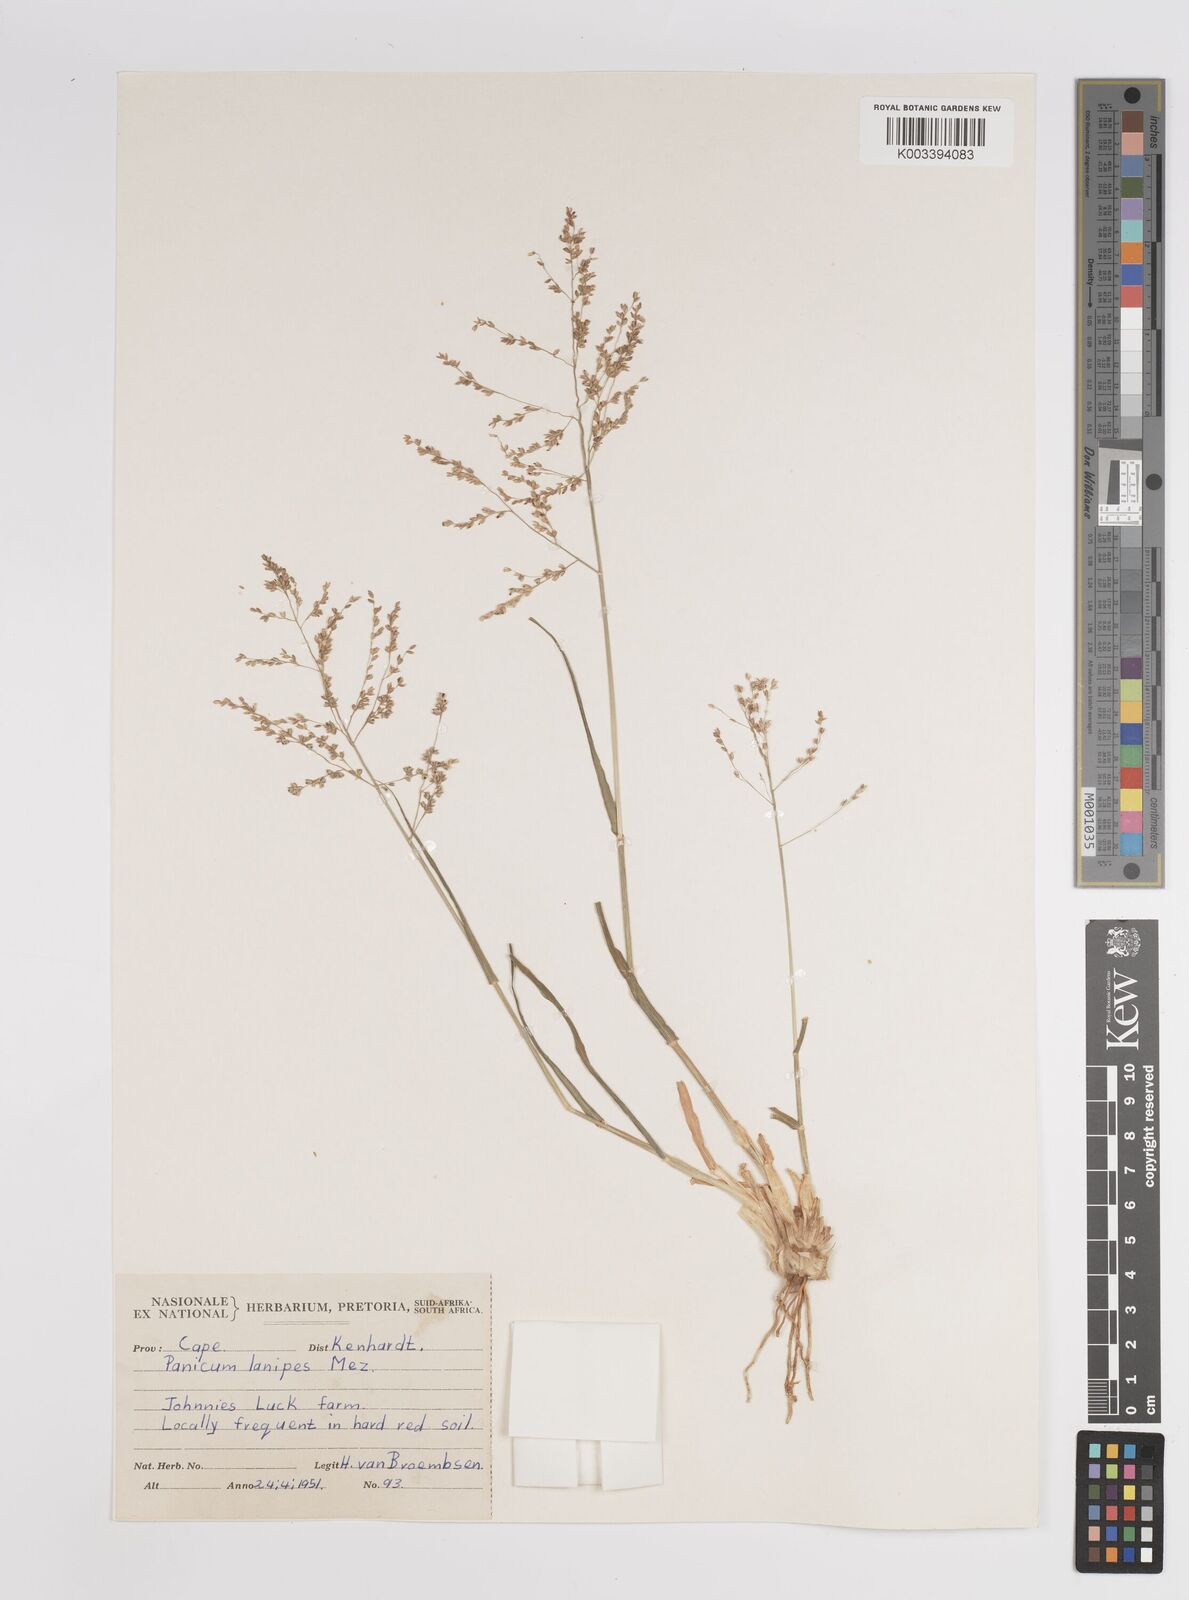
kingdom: Plantae
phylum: Tracheophyta
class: Liliopsida
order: Poales
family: Poaceae
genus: Panicum
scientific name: Panicum lanipes
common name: Wolvoet panicum
